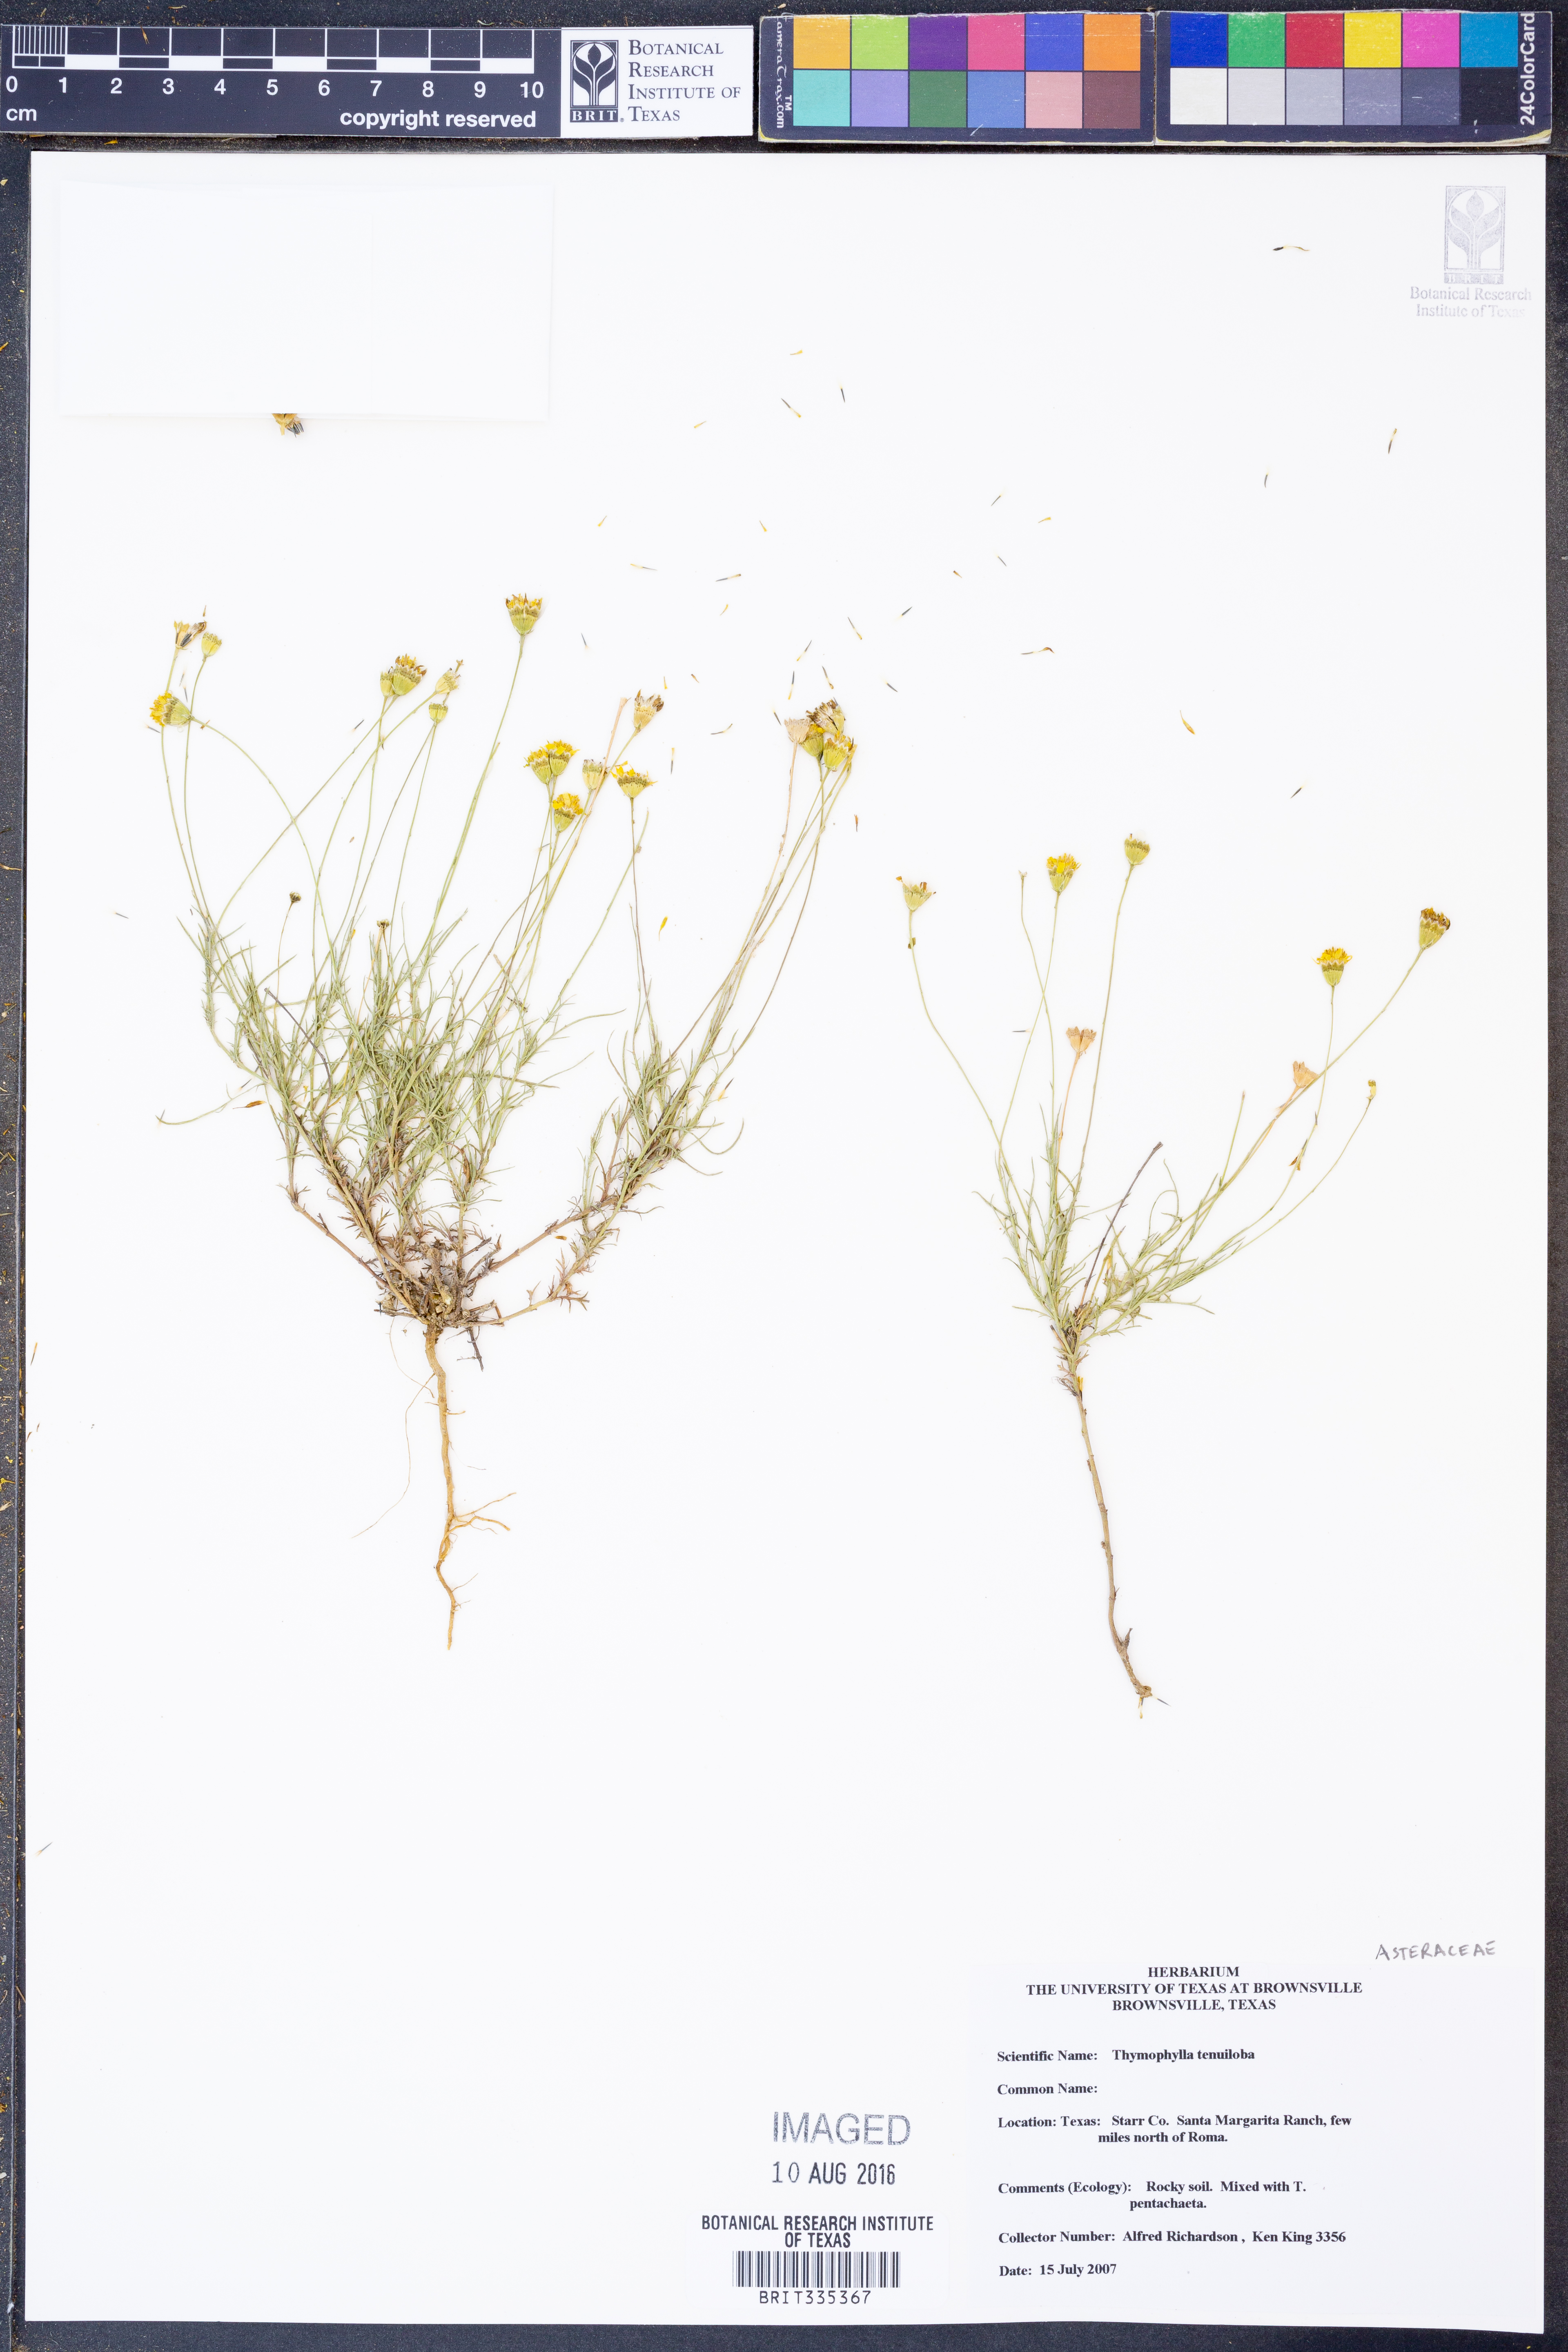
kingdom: Plantae
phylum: Tracheophyta
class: Magnoliopsida
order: Asterales
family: Asteraceae
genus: Thymophylla
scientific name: Thymophylla tenuiloba
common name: Dahlberg's daisy
